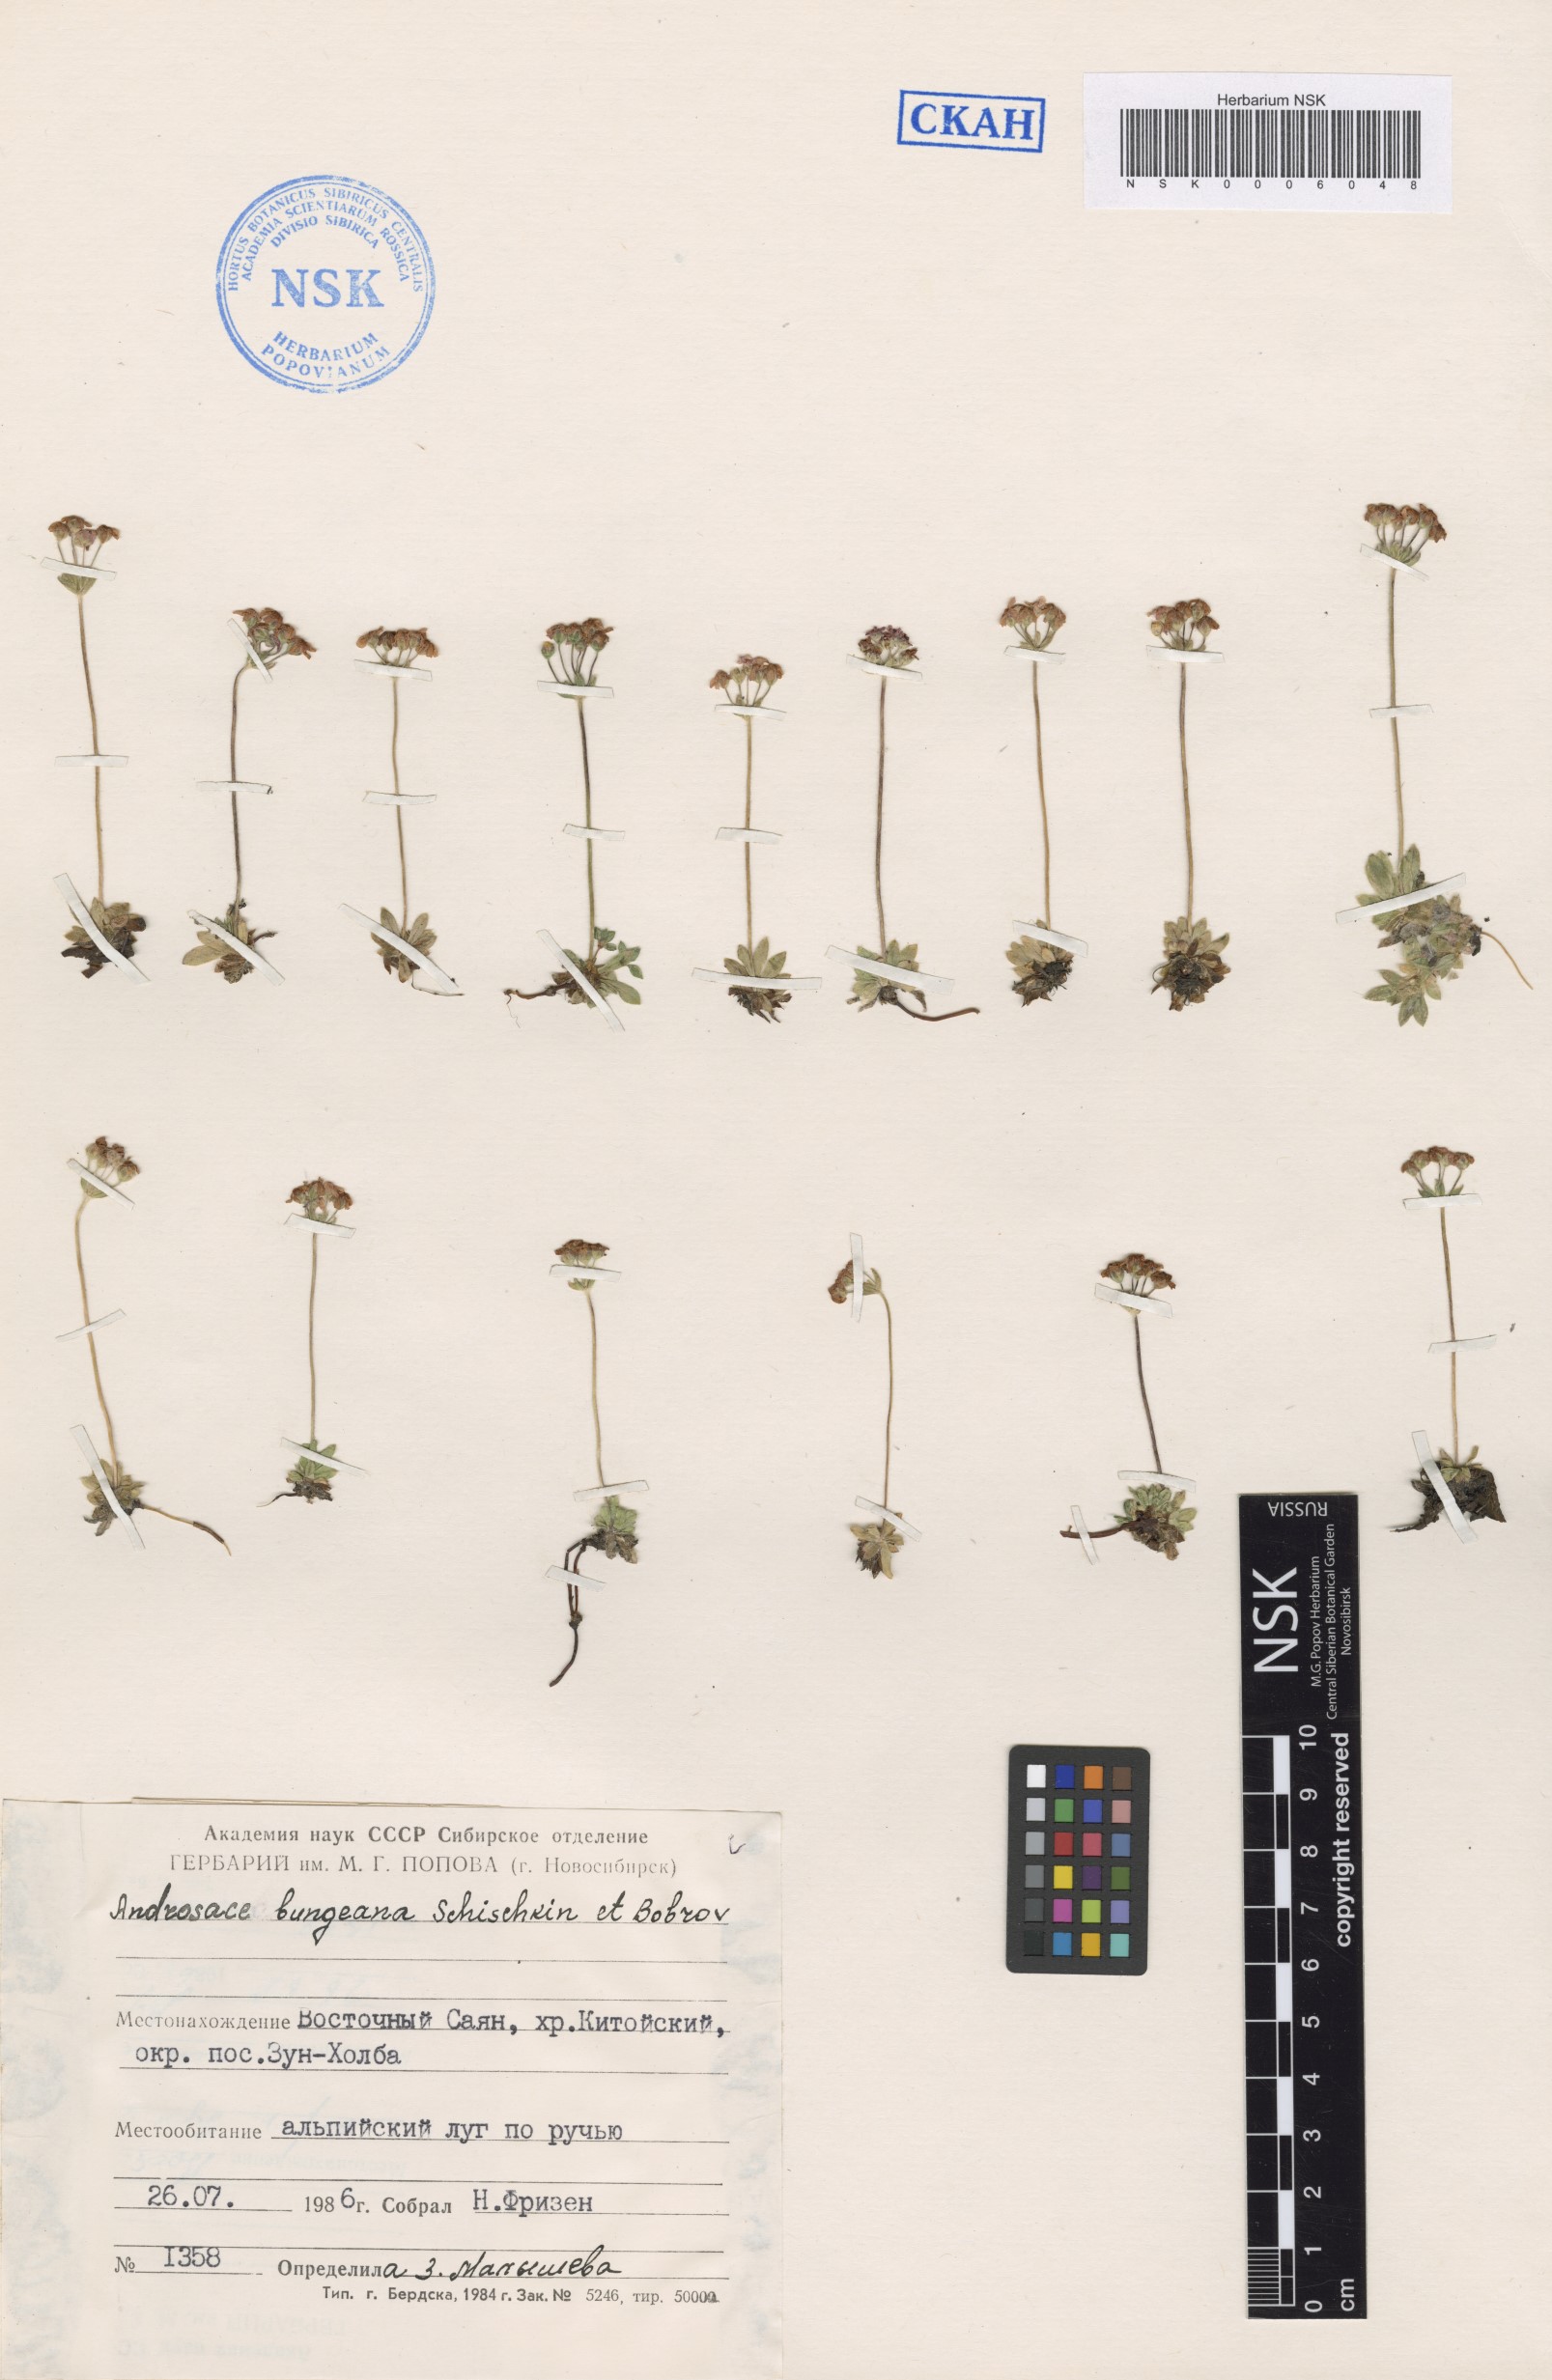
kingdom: Plantae
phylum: Tracheophyta
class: Magnoliopsida
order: Ericales
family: Primulaceae
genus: Androsace
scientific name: Androsace bungeana
